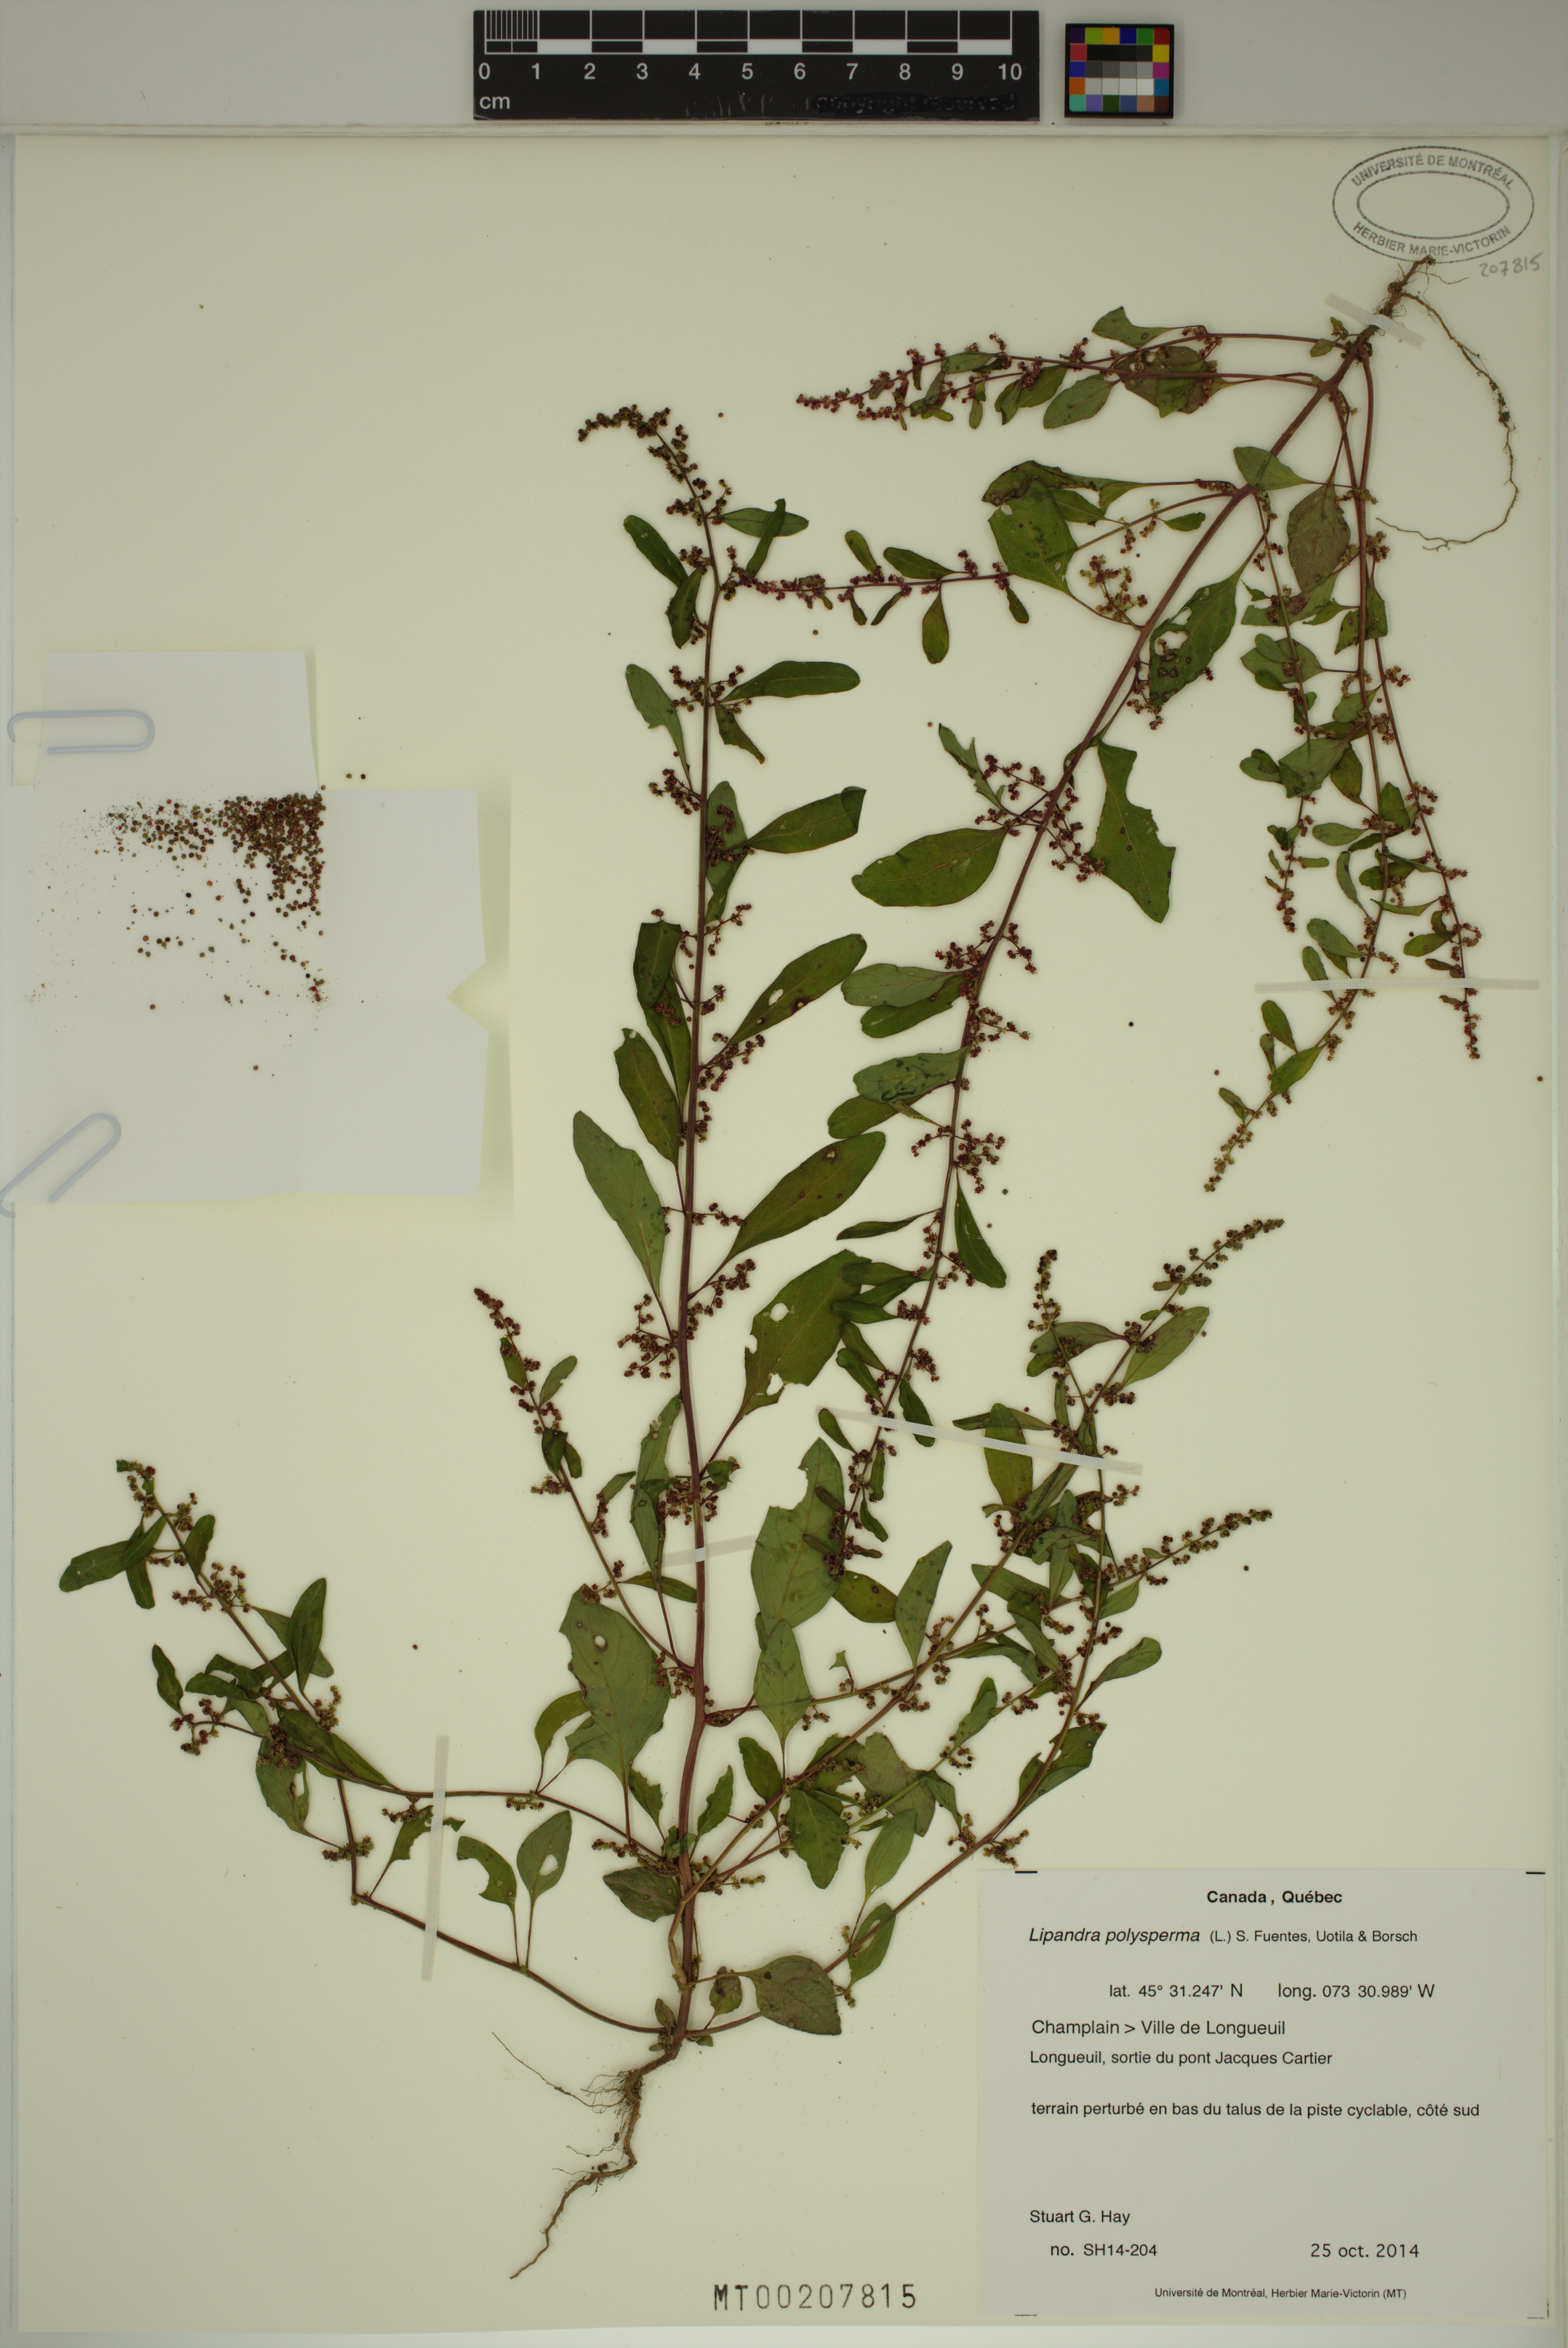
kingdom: Plantae
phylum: Tracheophyta
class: Magnoliopsida
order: Caryophyllales
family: Amaranthaceae
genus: Lipandra
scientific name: Lipandra polysperma
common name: Many-seed goosefoot
